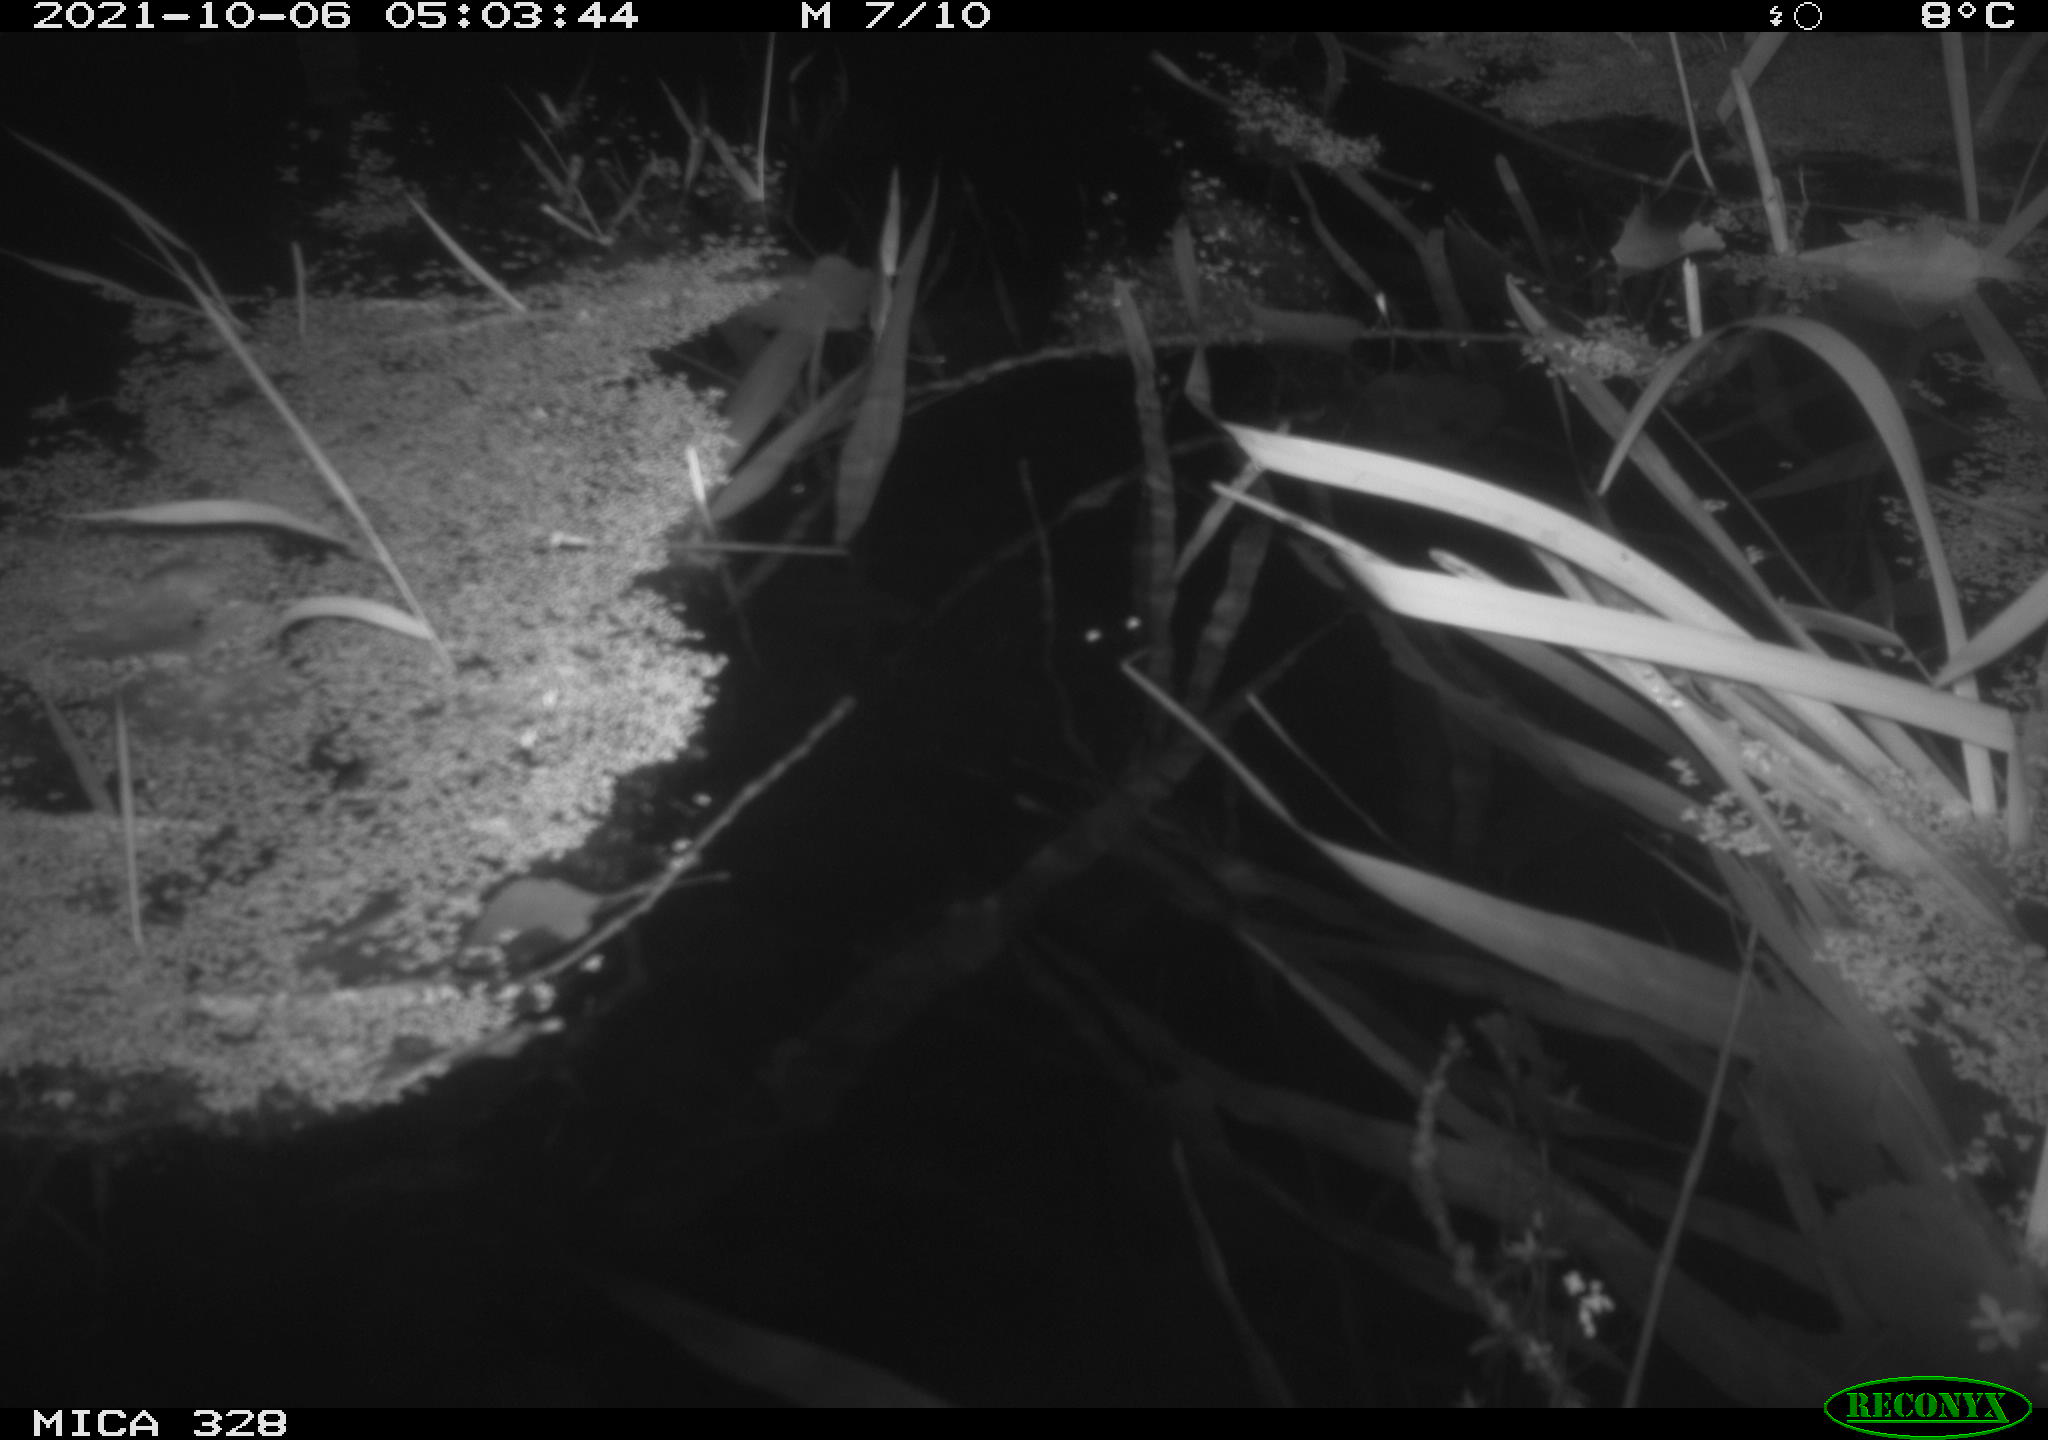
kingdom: Animalia
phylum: Chordata
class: Mammalia
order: Rodentia
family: Cricetidae
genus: Ondatra
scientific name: Ondatra zibethicus
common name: Muskrat
